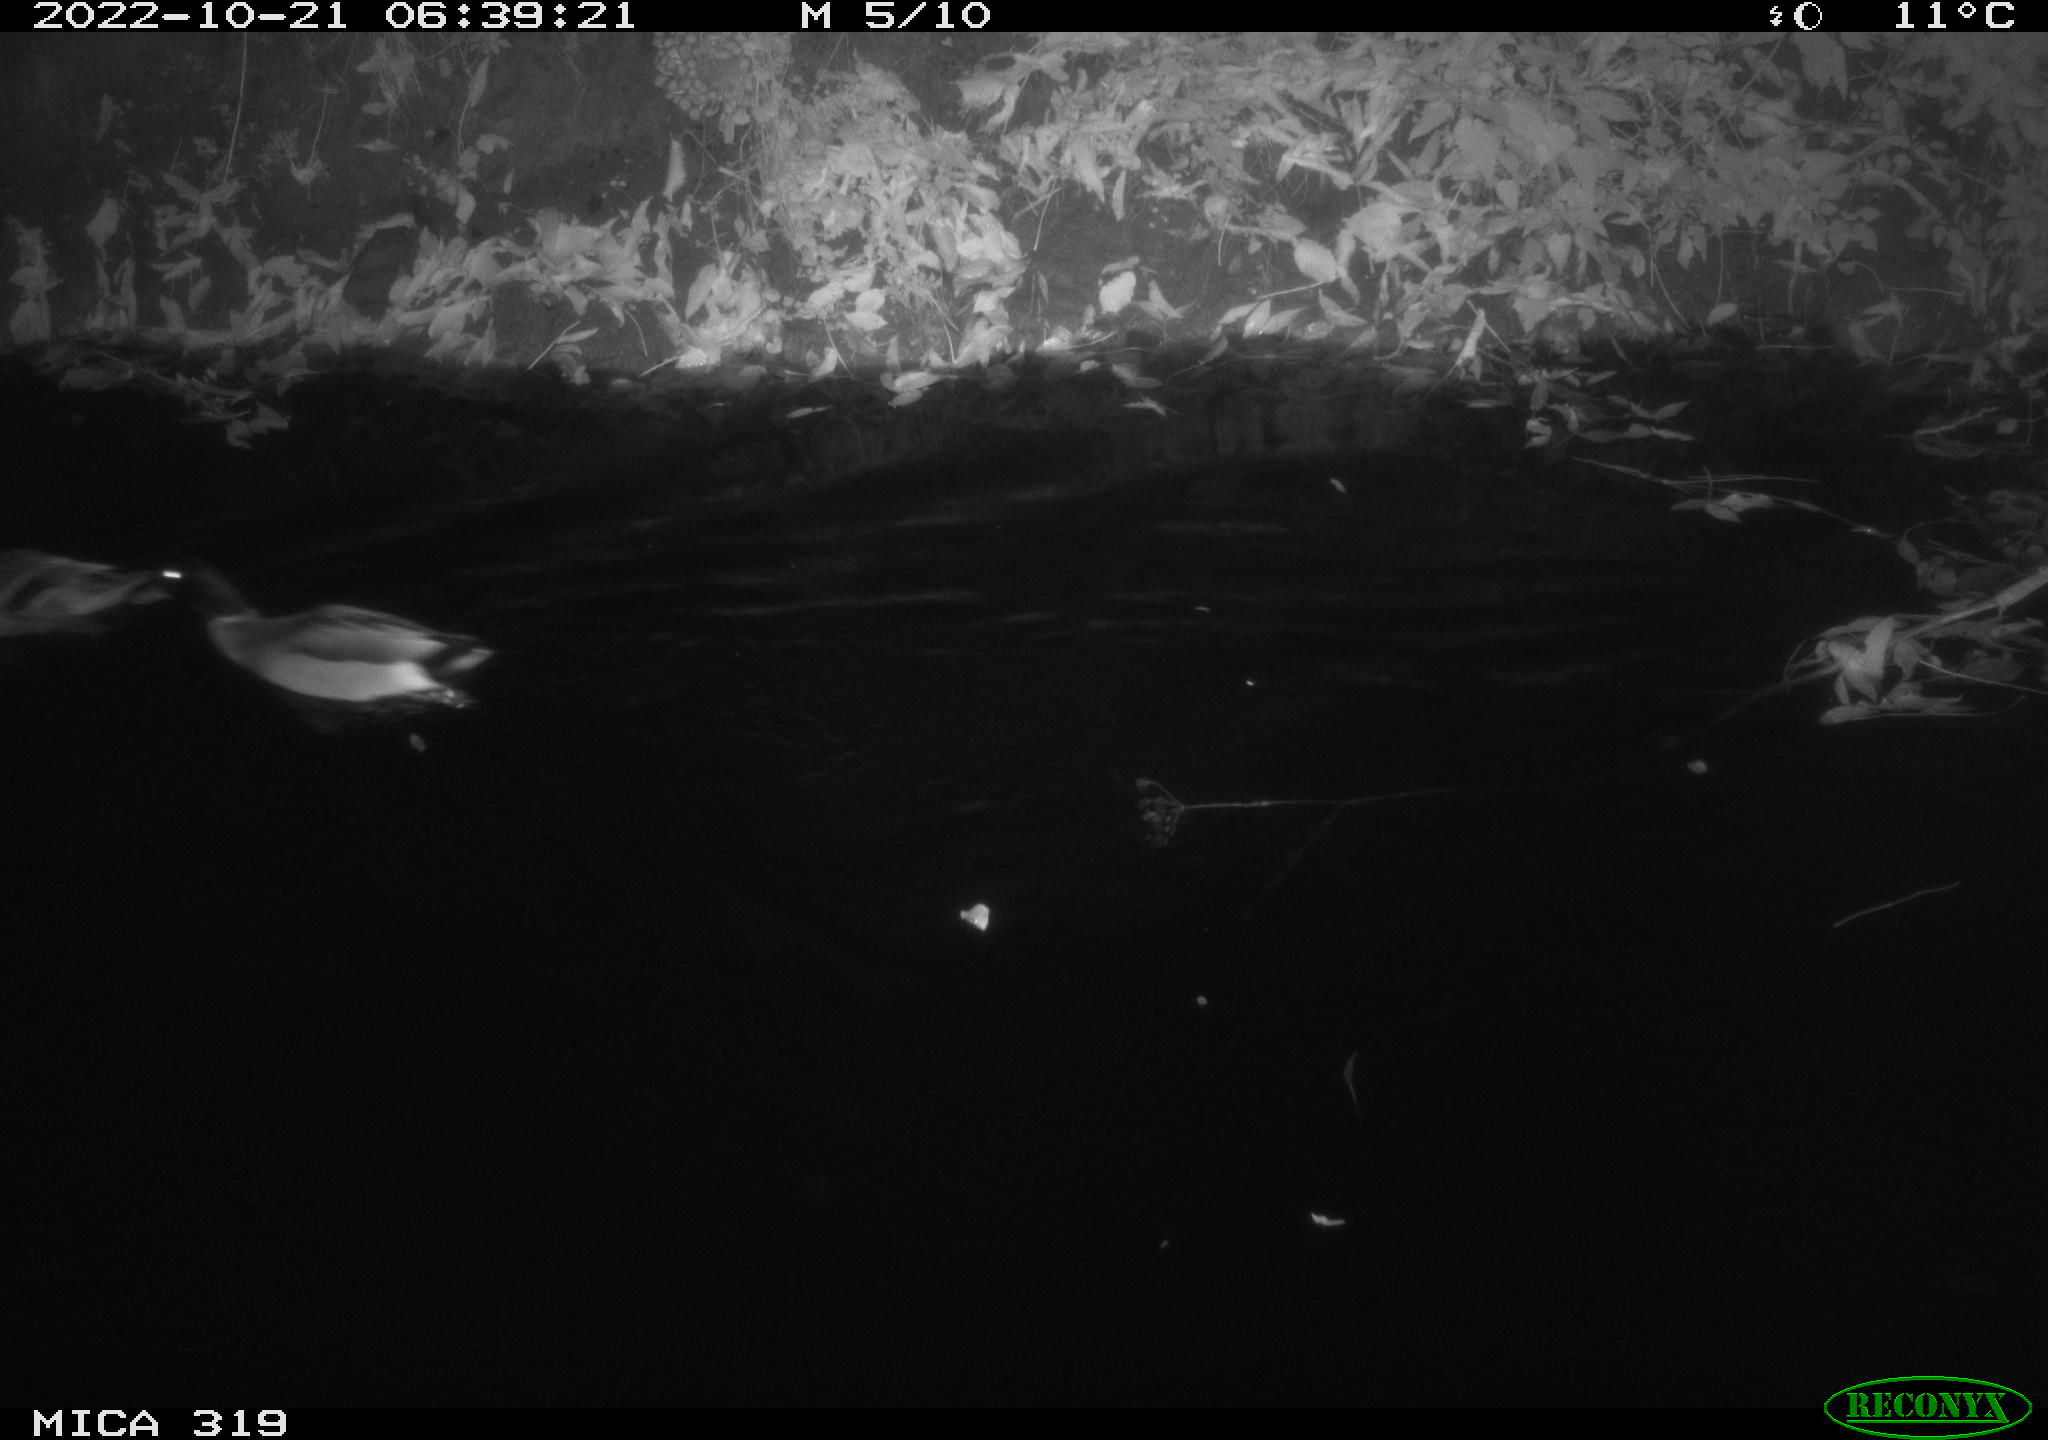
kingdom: Animalia
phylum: Chordata
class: Aves
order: Anseriformes
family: Anatidae
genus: Anas
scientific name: Anas
